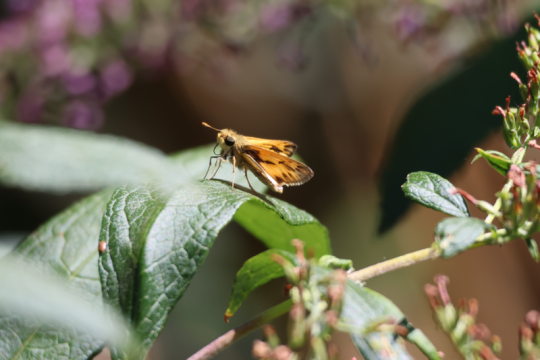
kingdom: Animalia
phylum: Arthropoda
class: Insecta
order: Lepidoptera
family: Hesperiidae
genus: Hylephila
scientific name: Hylephila phyleus
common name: Fiery Skipper
